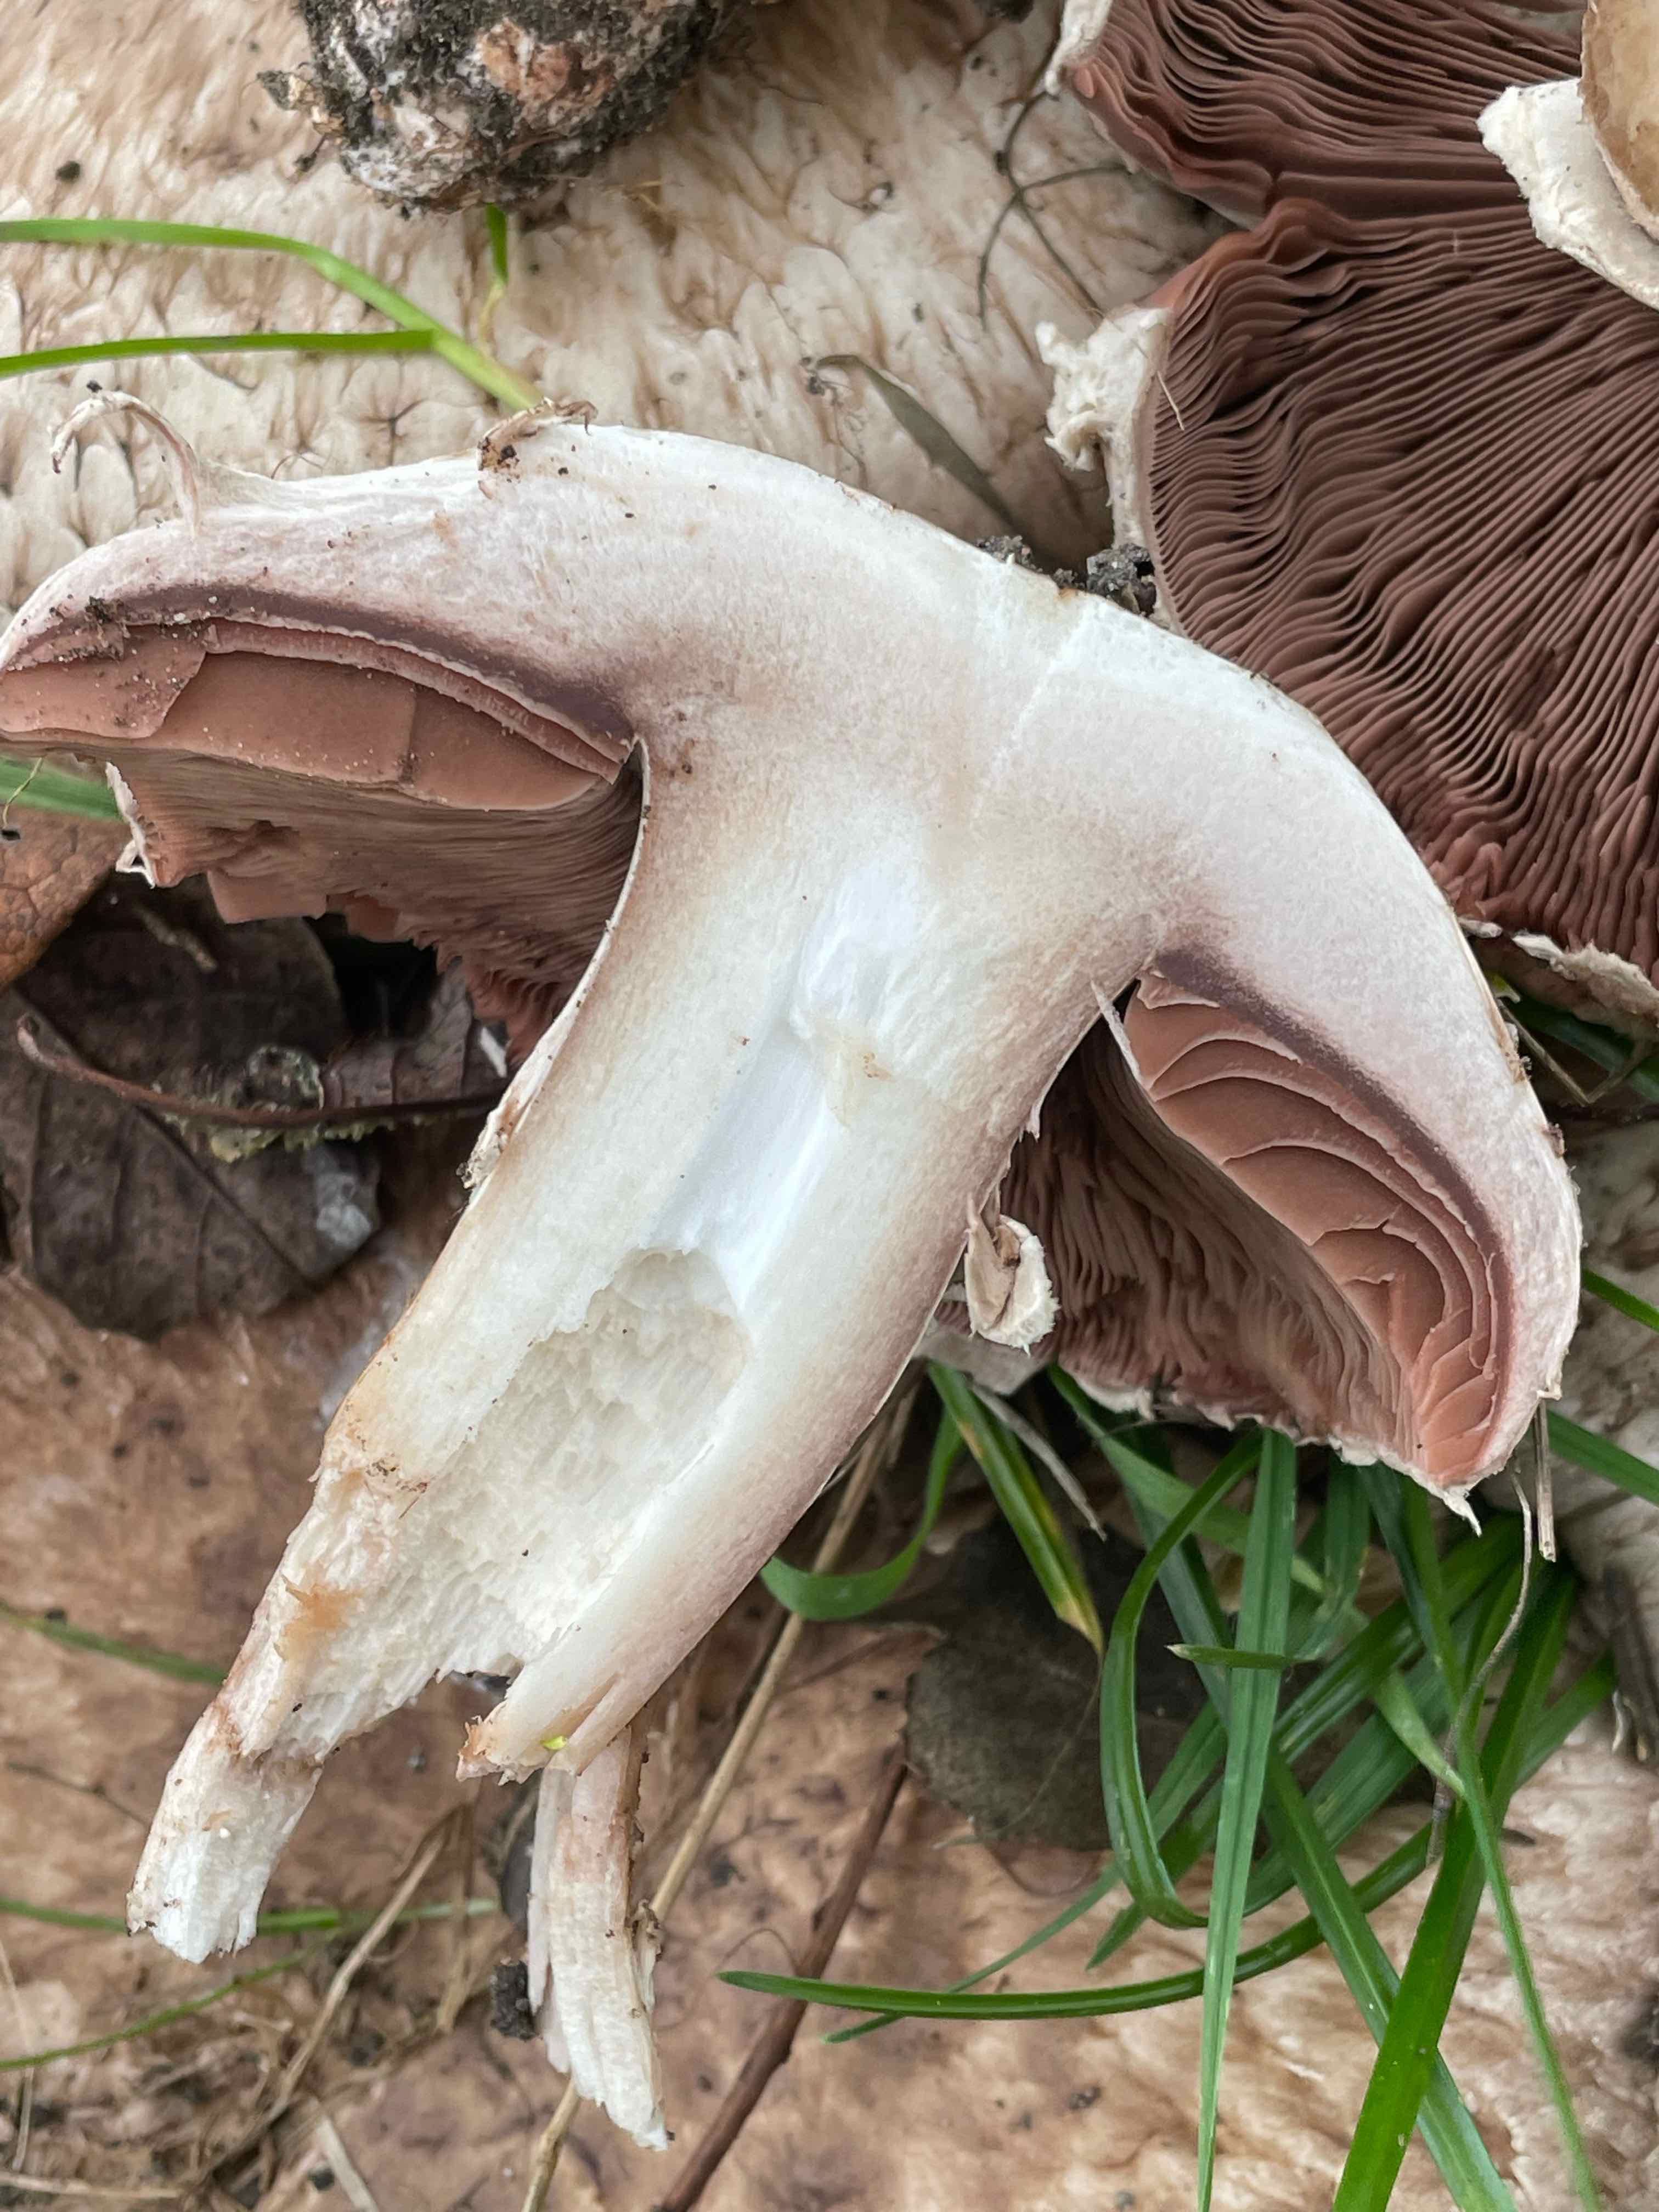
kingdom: Fungi
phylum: Basidiomycota
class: Agaricomycetes
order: Agaricales
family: Agaricaceae
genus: Agaricus
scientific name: Agaricus subperonatus
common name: knippe-champignon
